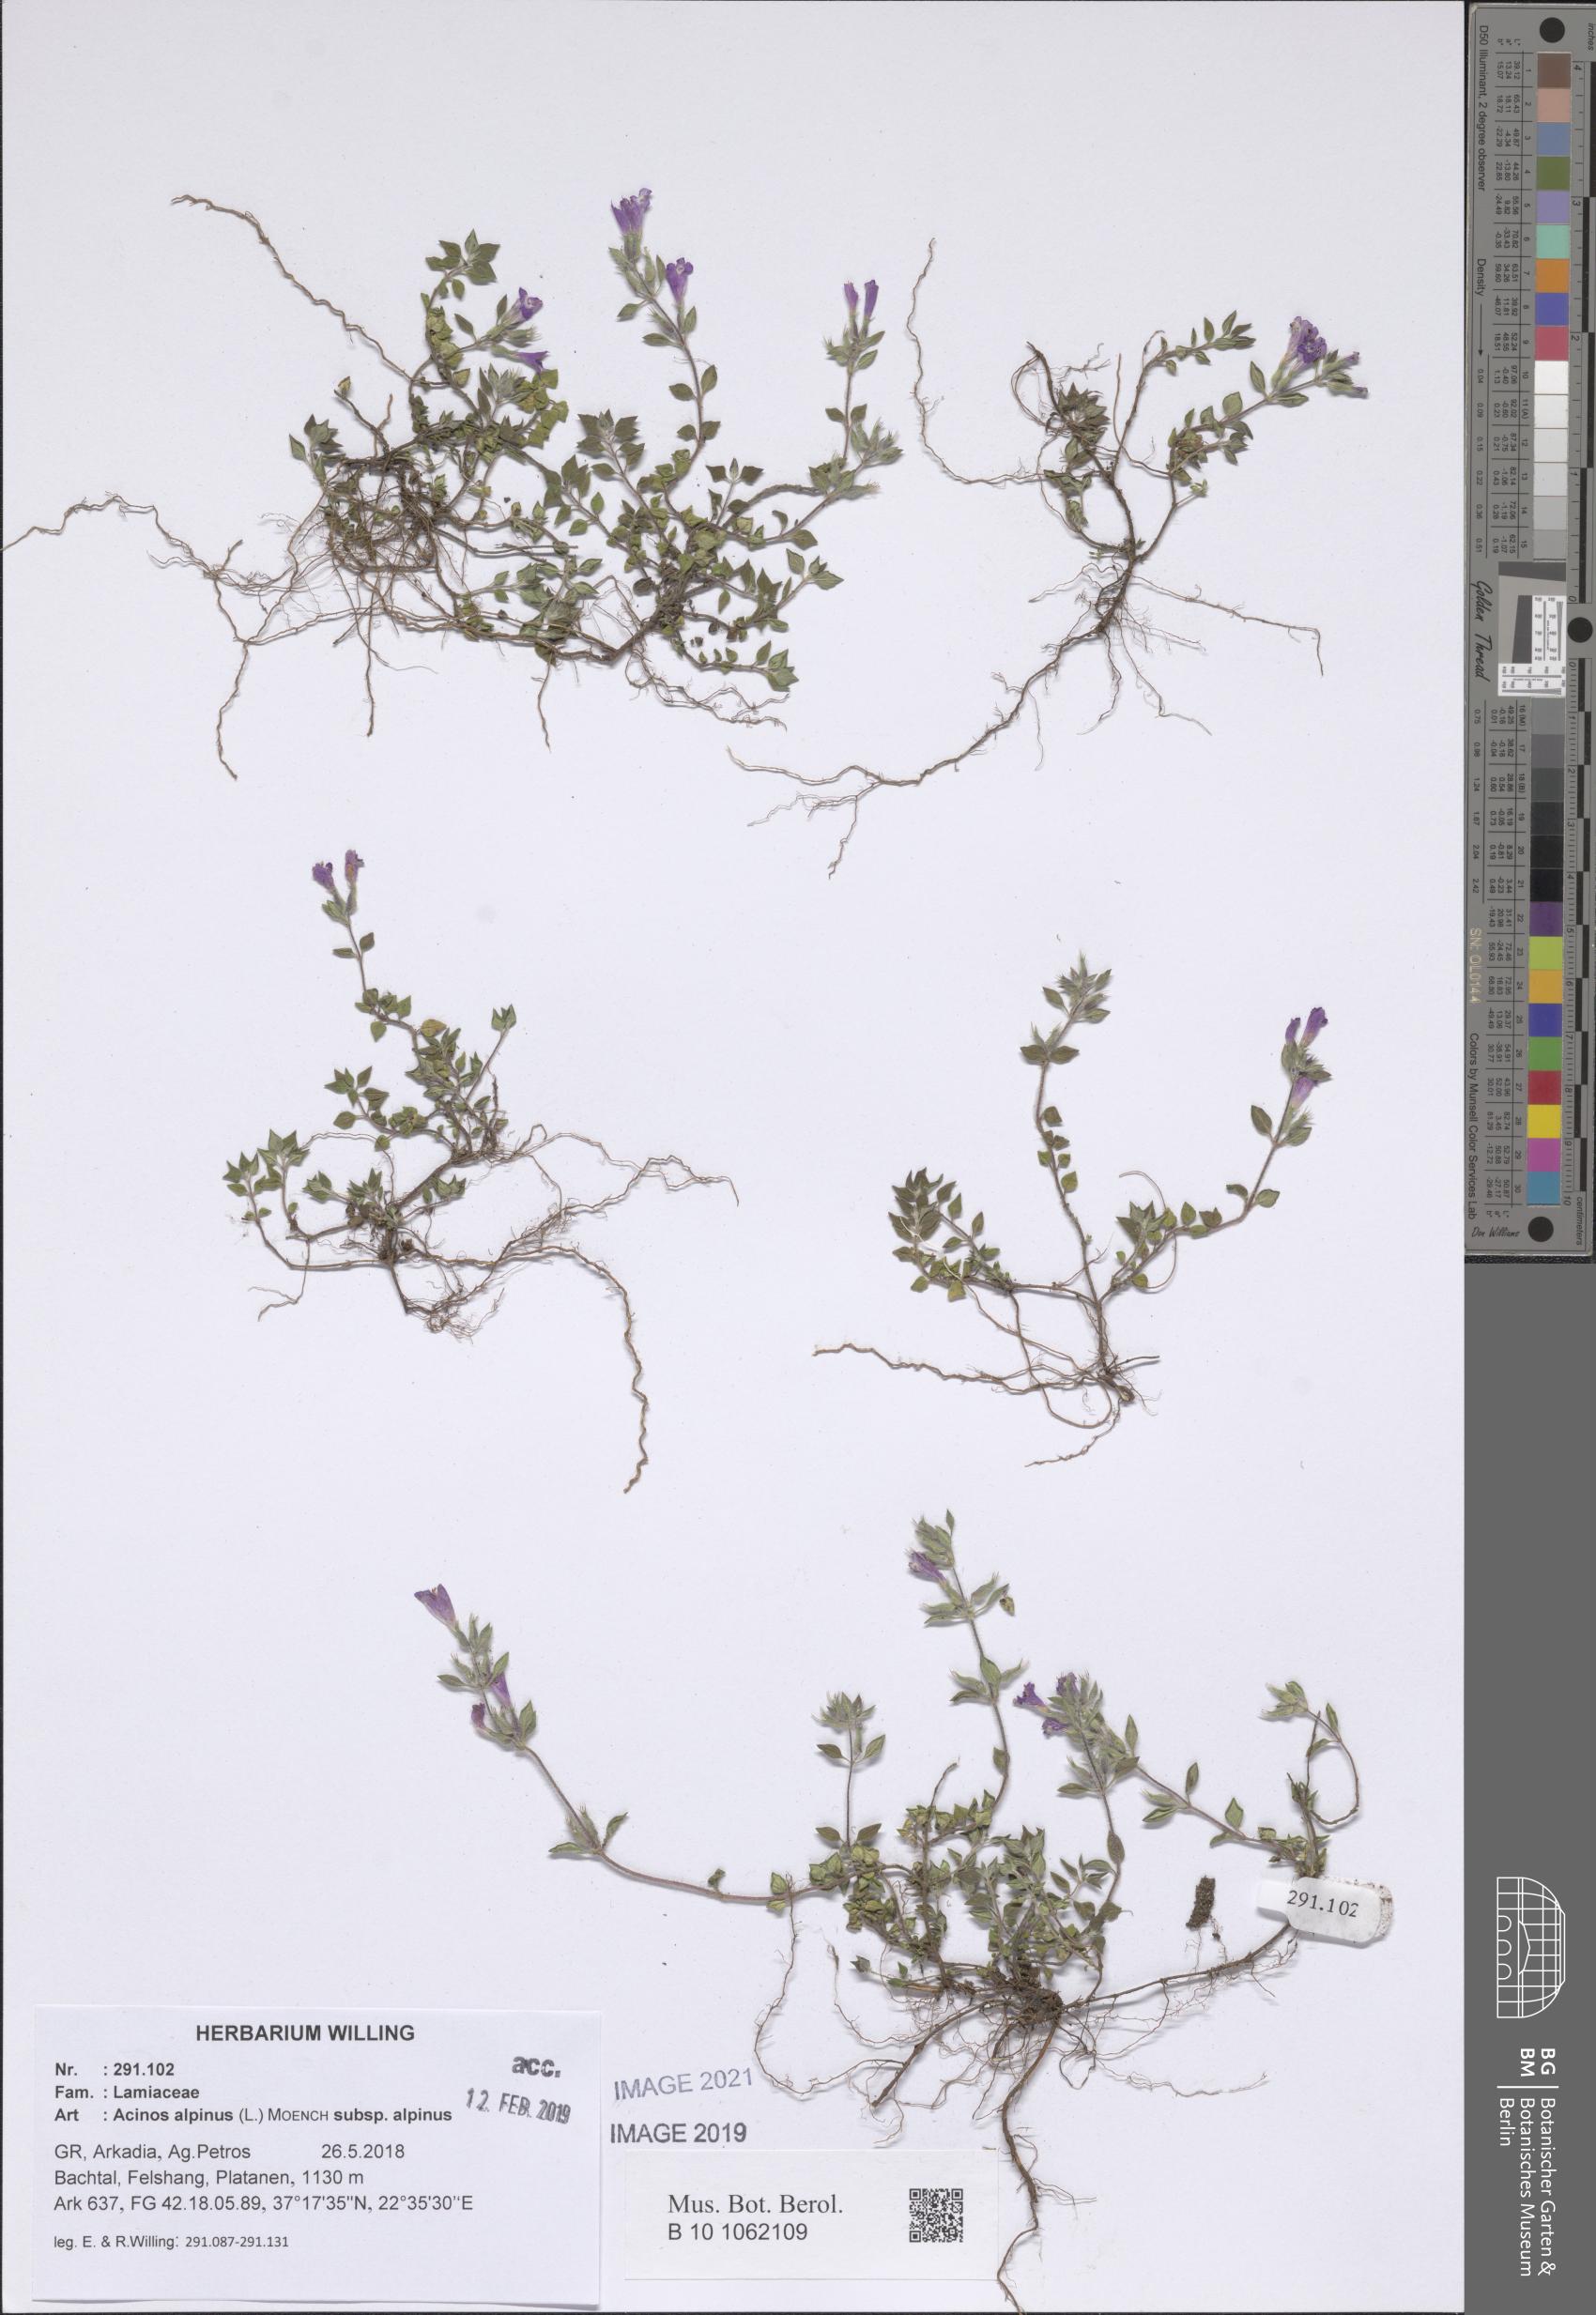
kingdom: Plantae
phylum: Tracheophyta
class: Magnoliopsida
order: Lamiales
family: Lamiaceae
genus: Clinopodium
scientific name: Clinopodium alpinum
